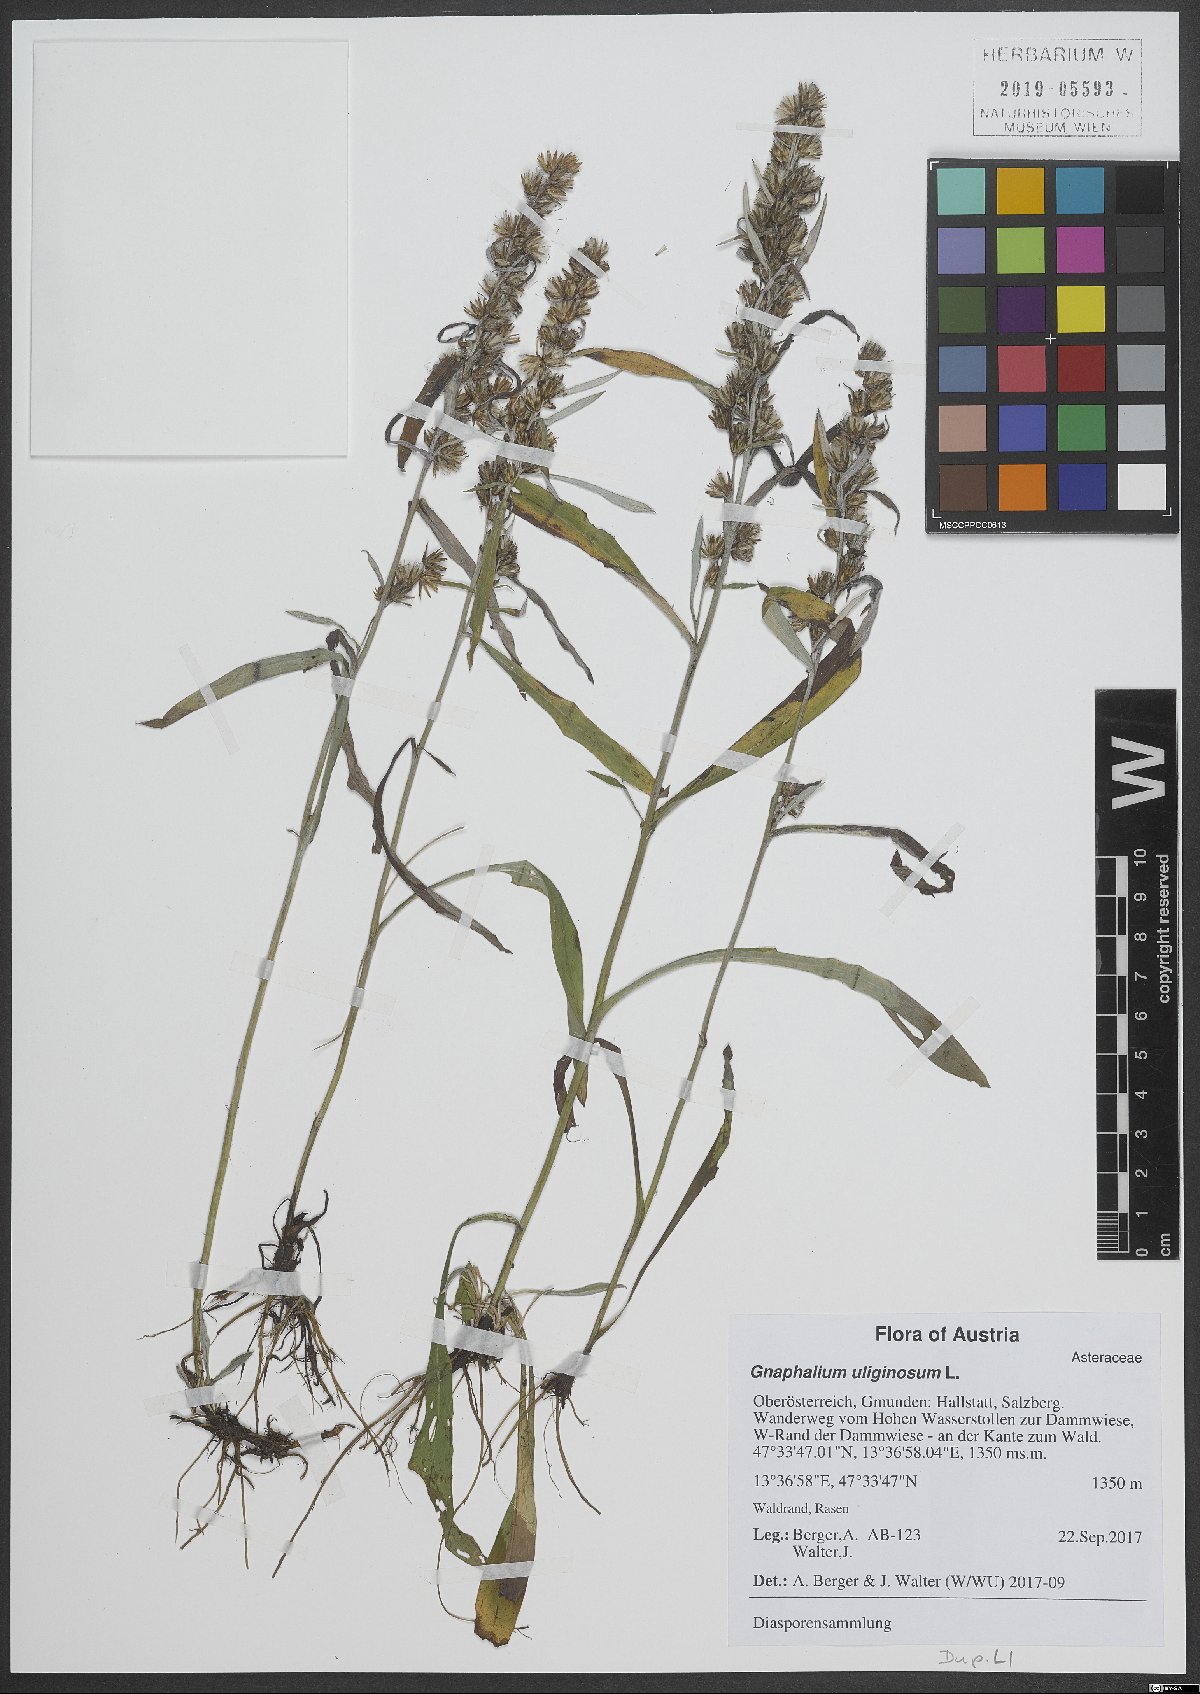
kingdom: Plantae
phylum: Tracheophyta
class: Magnoliopsida
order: Asterales
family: Asteraceae
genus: Gnaphalium
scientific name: Gnaphalium uliginosum
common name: Marsh cudweed
